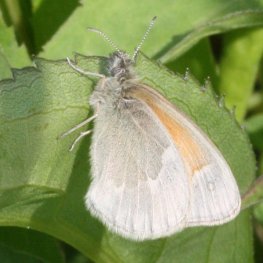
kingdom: Animalia
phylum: Arthropoda
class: Insecta
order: Lepidoptera
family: Nymphalidae
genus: Coenonympha
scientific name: Coenonympha tullia
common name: Large Heath
